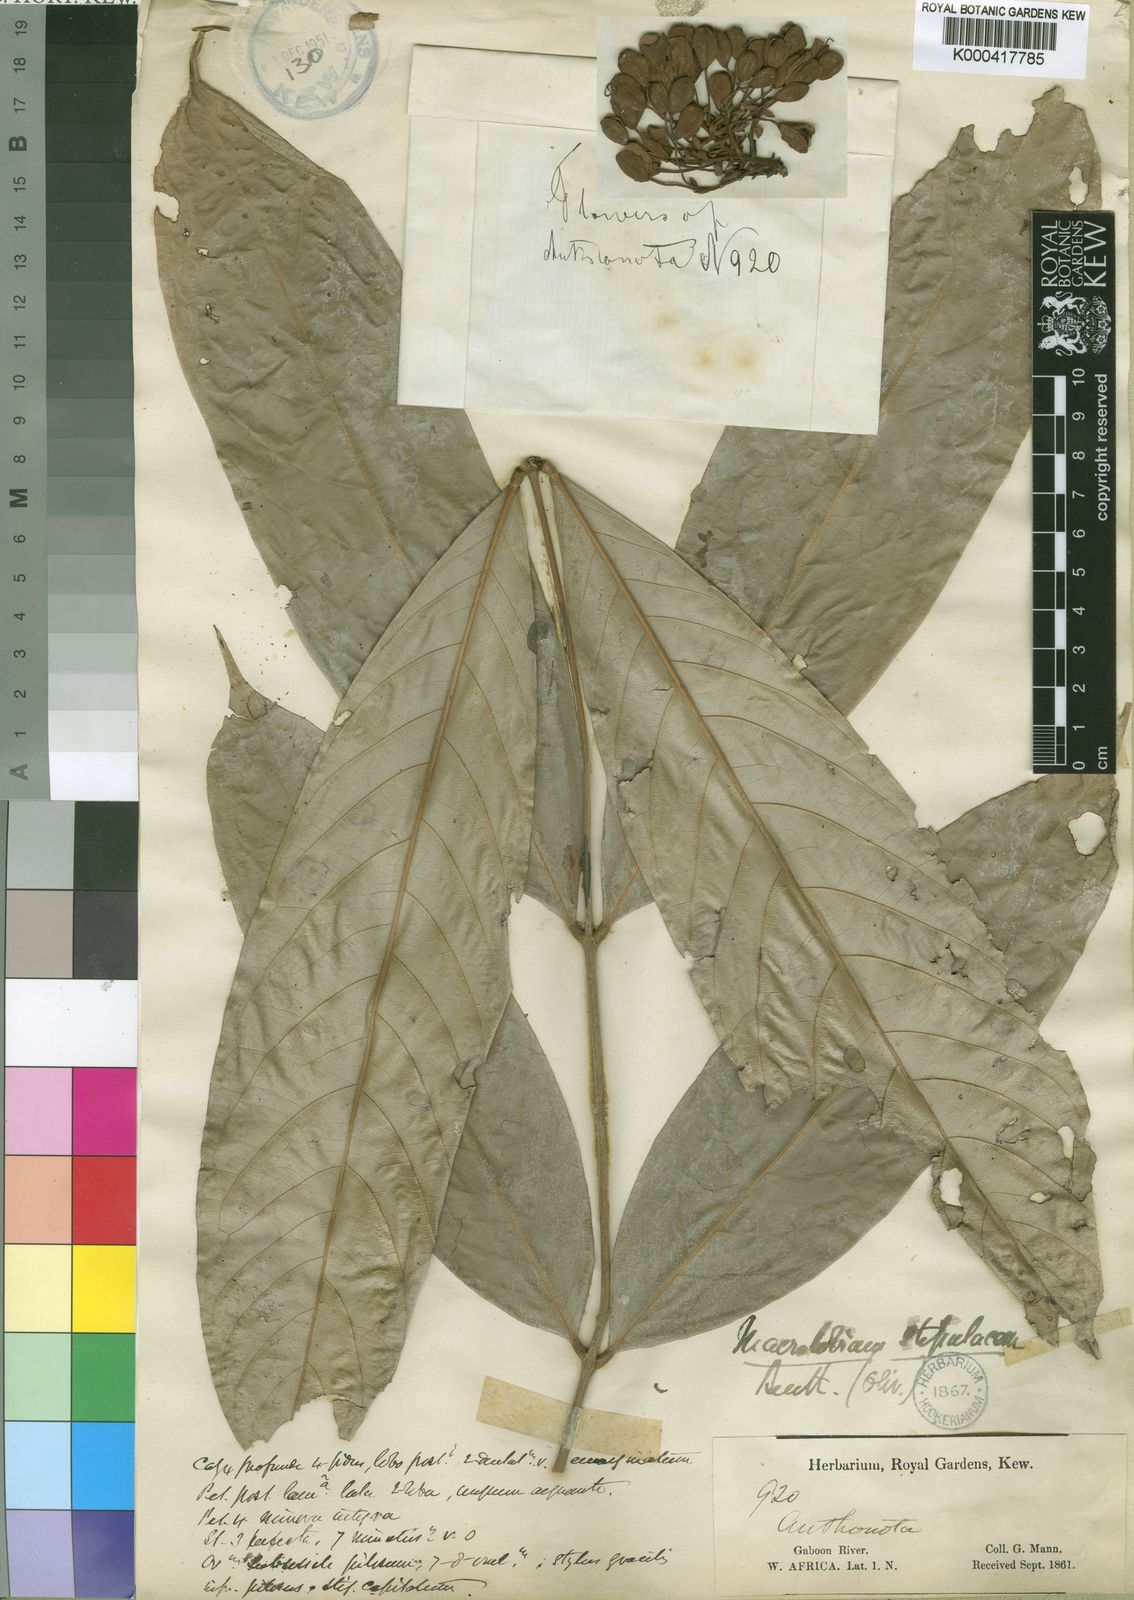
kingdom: Plantae
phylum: Tracheophyta
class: Magnoliopsida
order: Fabales
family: Fabaceae
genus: Anthonotha
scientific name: Anthonotha
